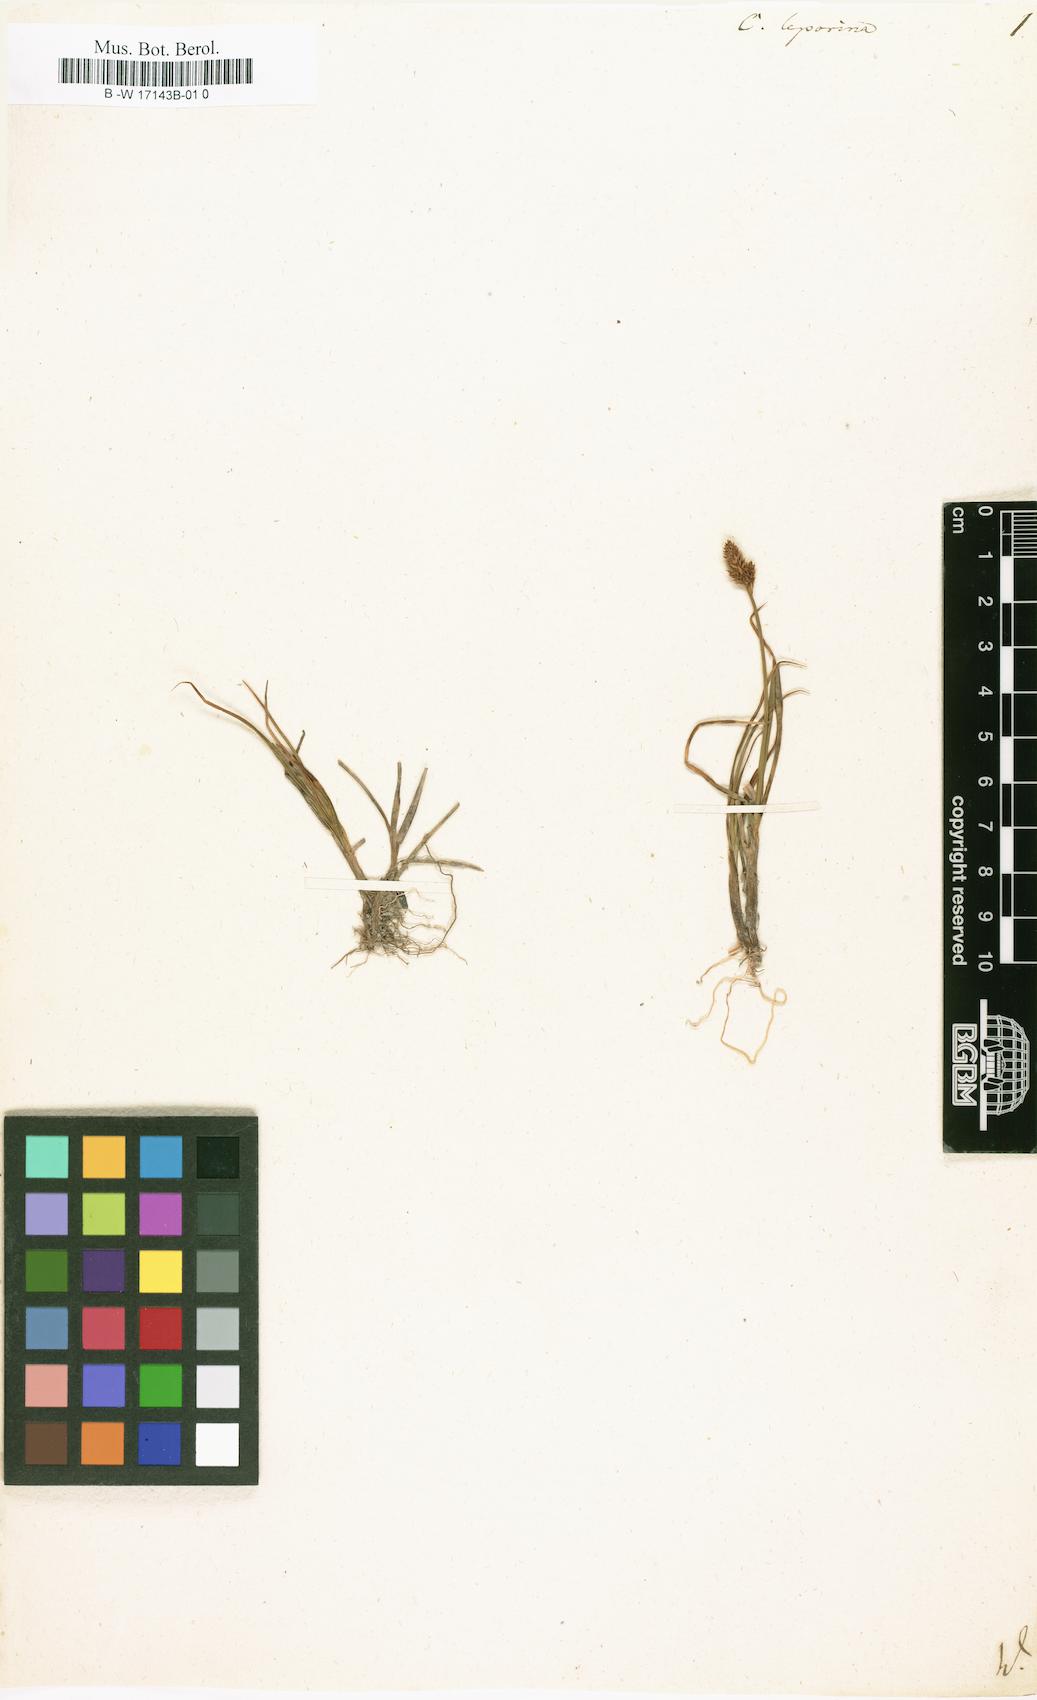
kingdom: Plantae
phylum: Tracheophyta
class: Liliopsida
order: Poales
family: Cyperaceae
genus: Carex
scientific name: Carex leporina
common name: Oval sedge
